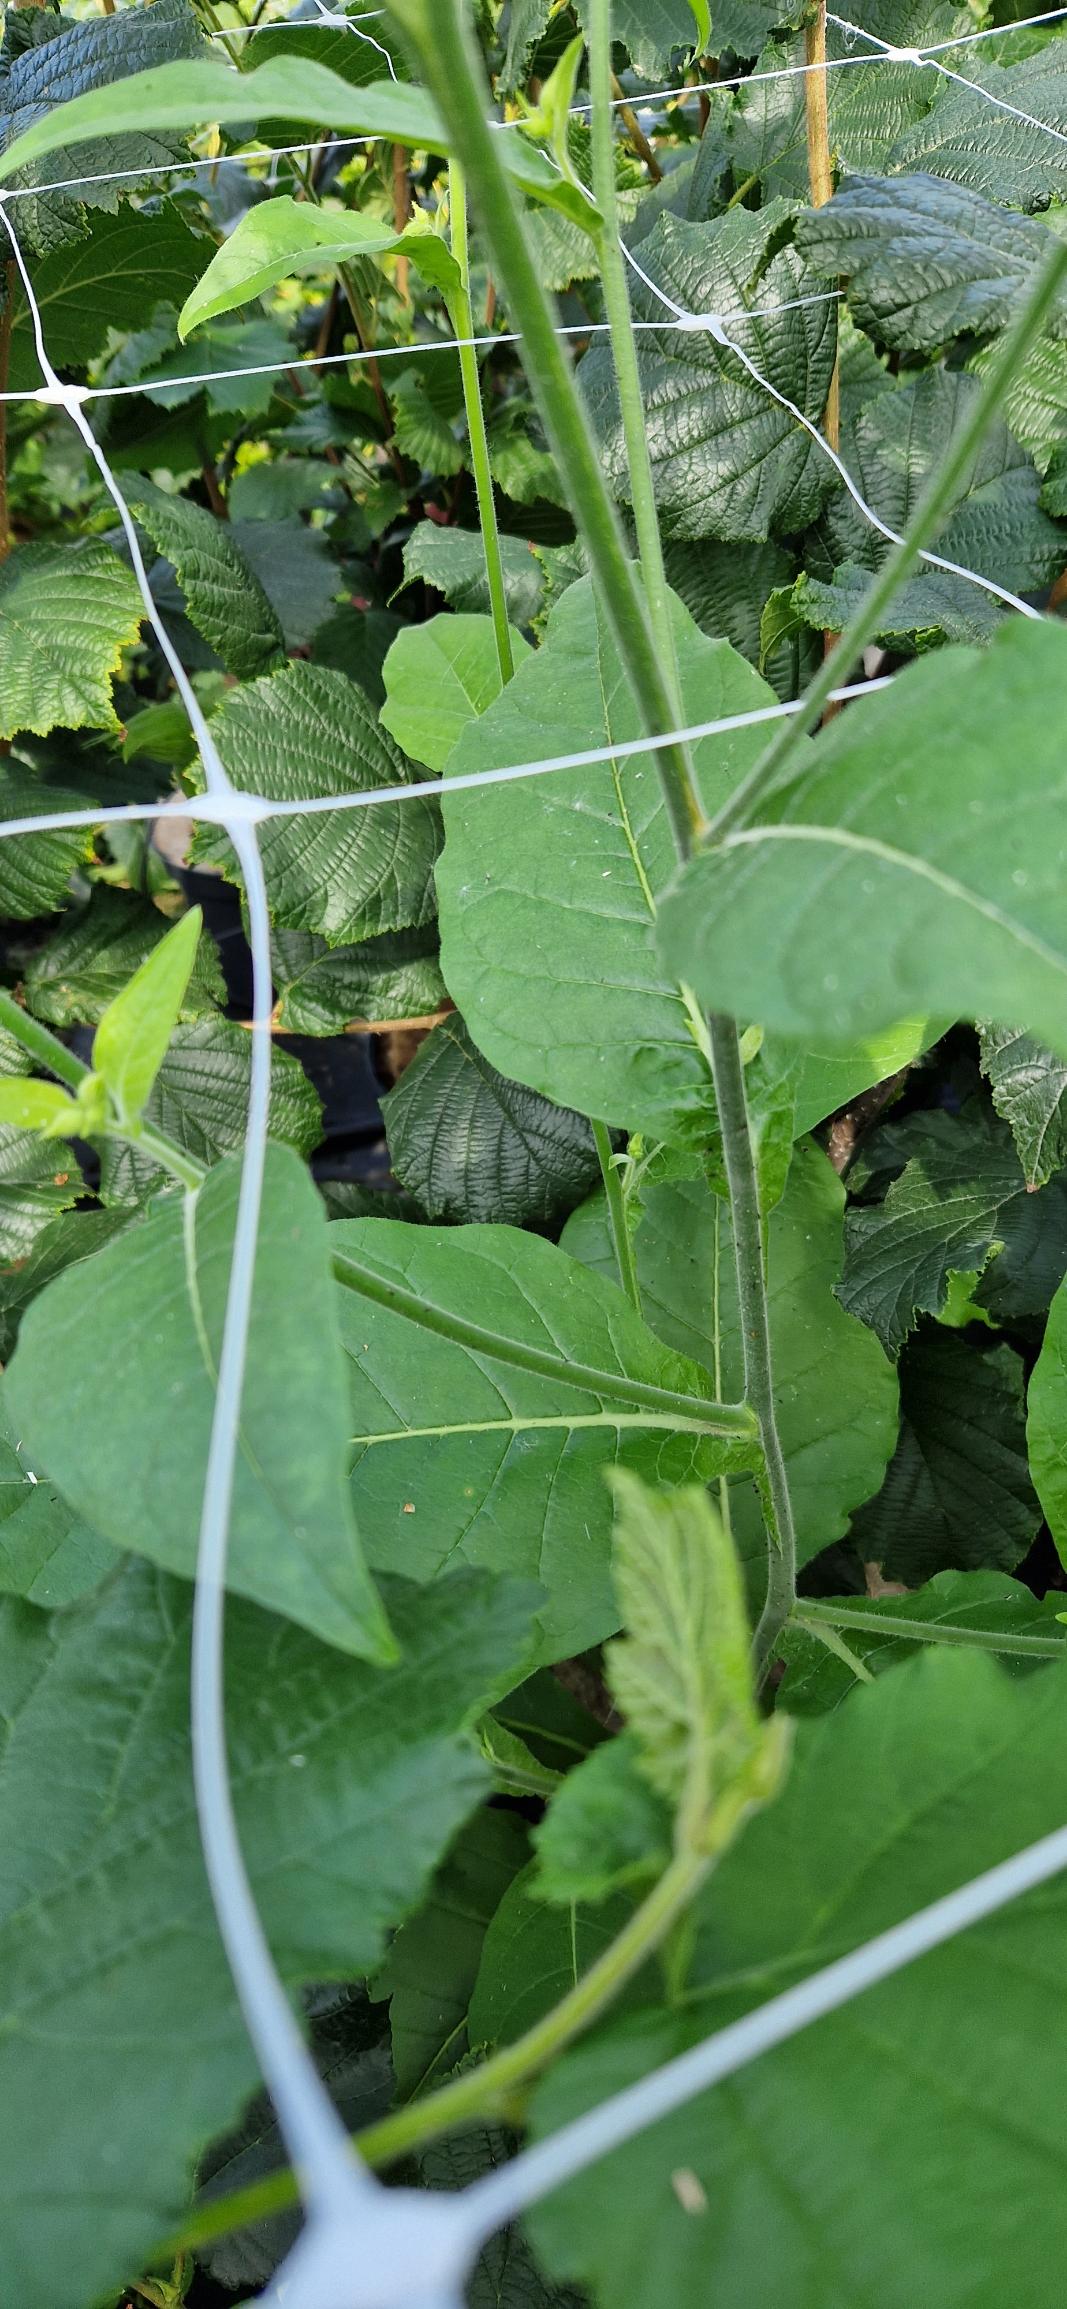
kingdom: Plantae
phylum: Tracheophyta
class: Magnoliopsida
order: Solanales
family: Solanaceae
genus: Nicotiana
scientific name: Nicotiana langsdorffii
